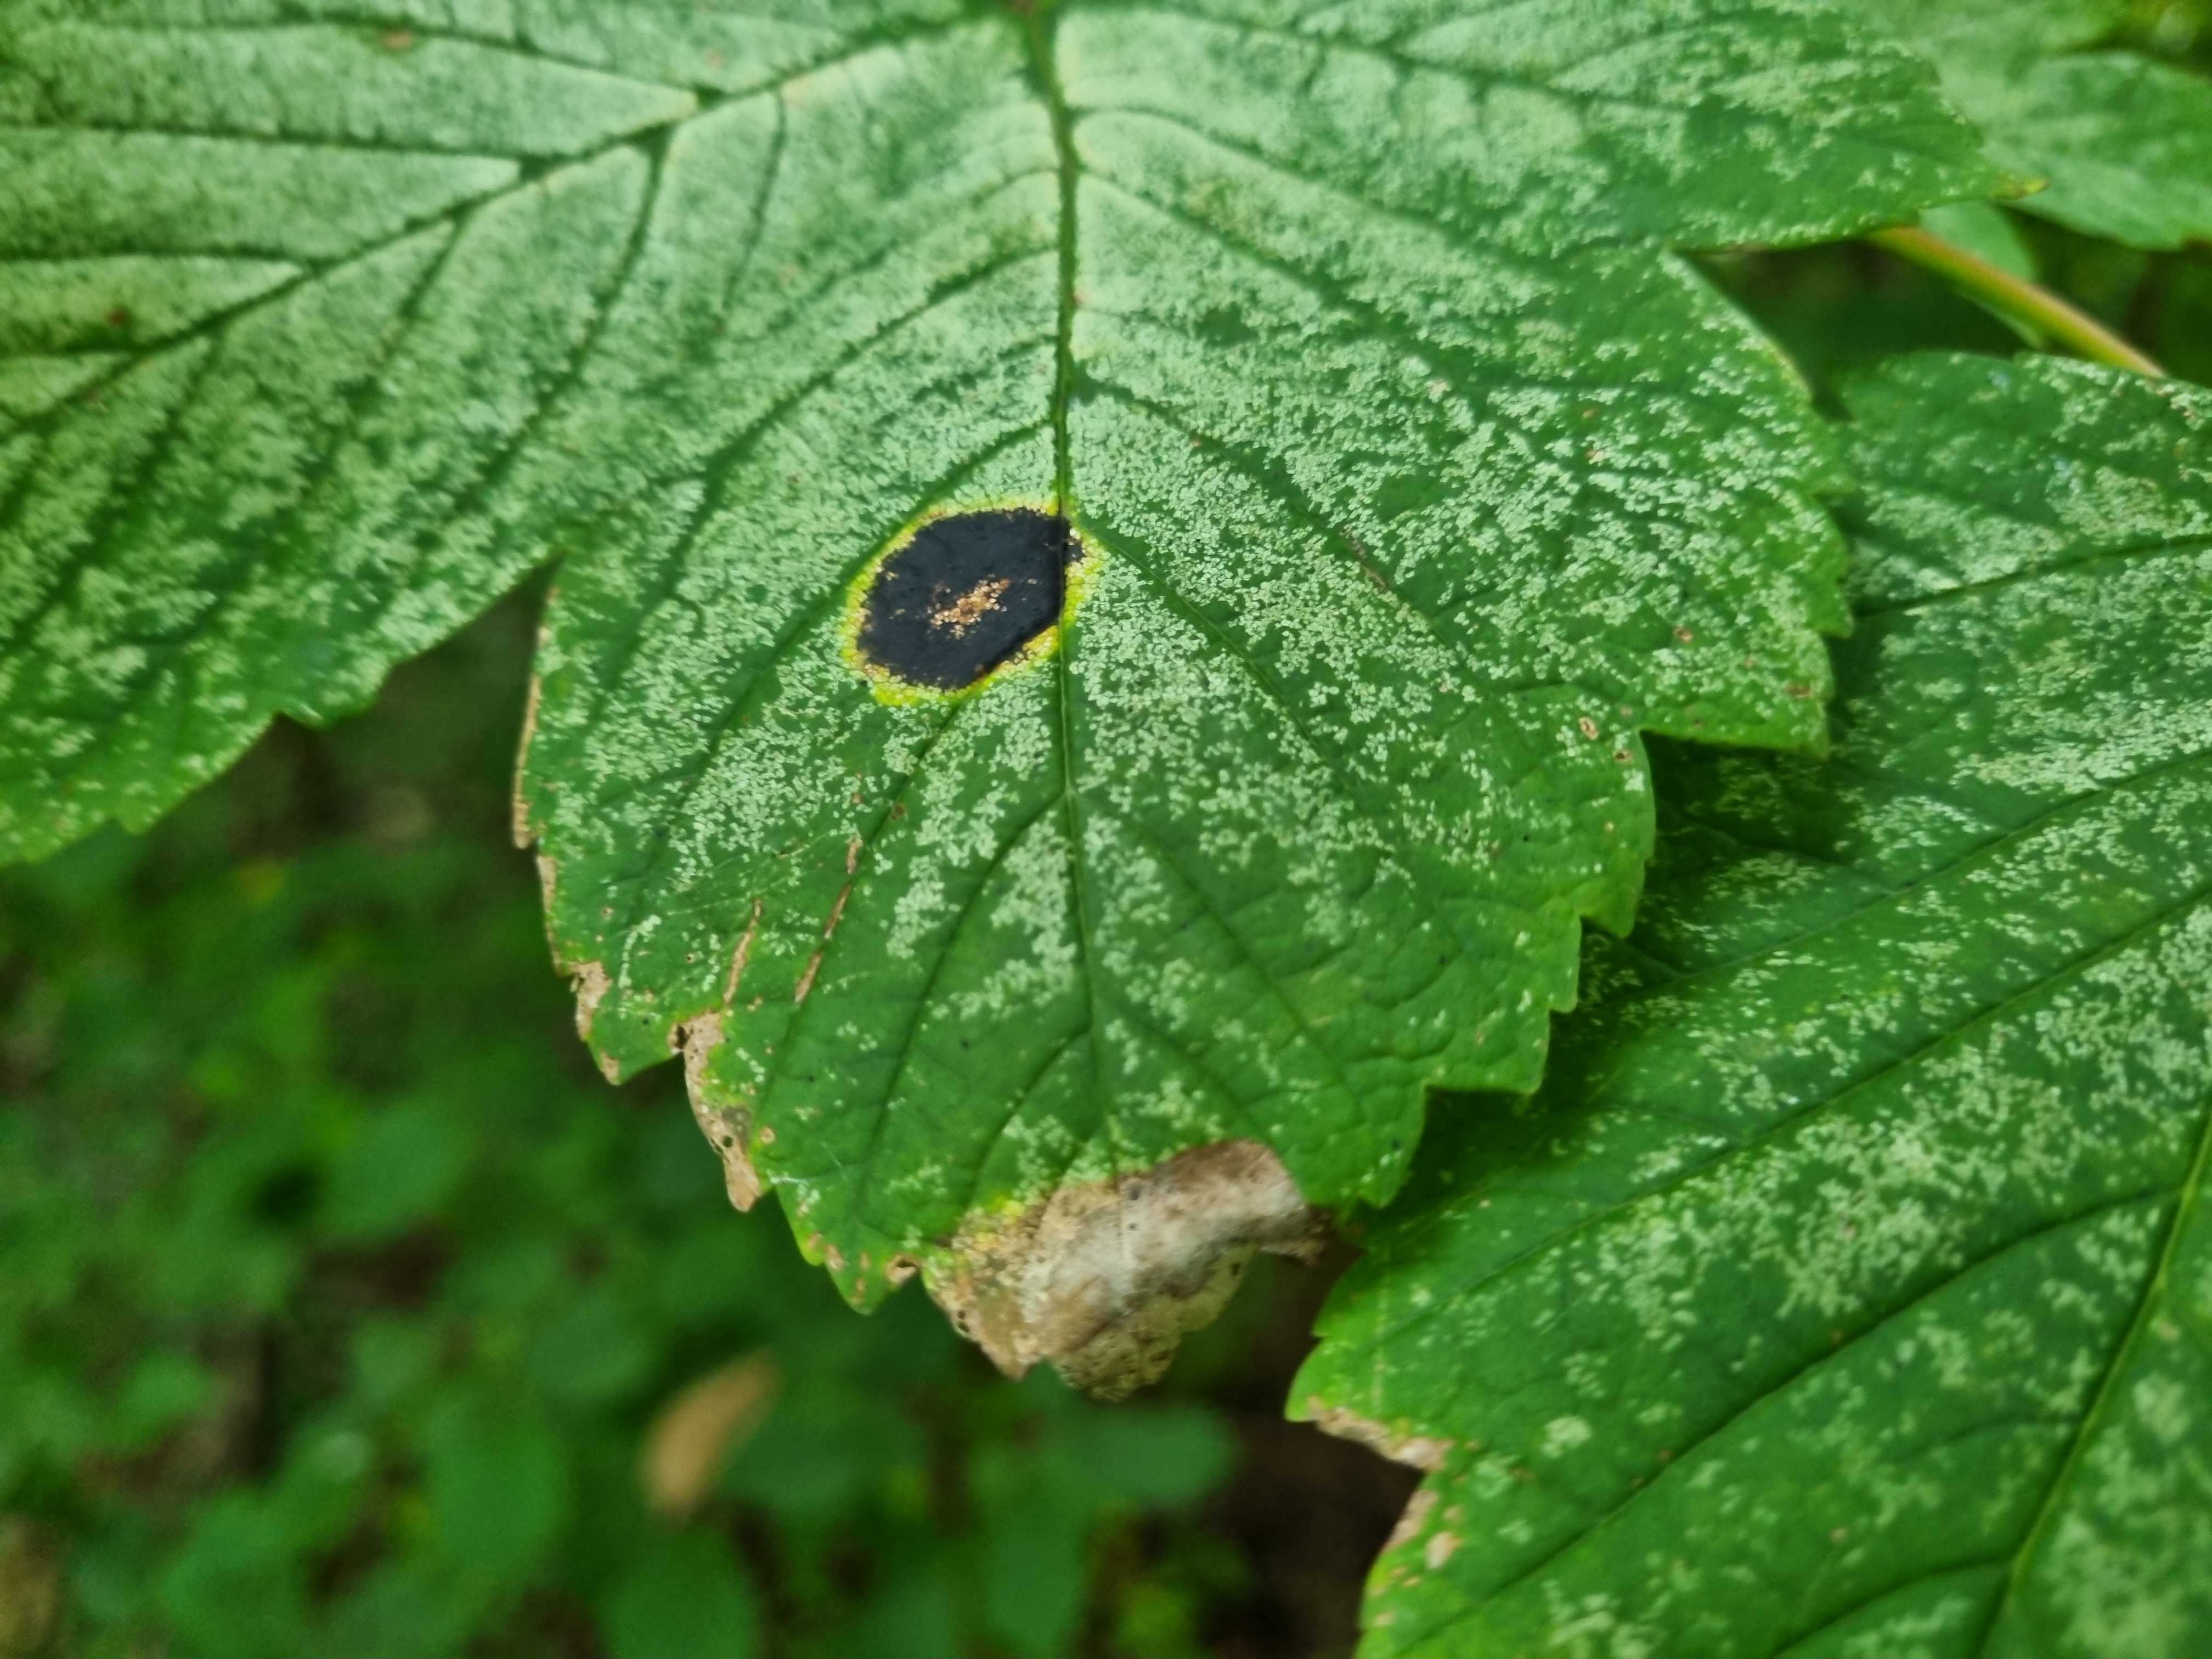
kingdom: Fungi
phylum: Ascomycota
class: Leotiomycetes
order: Rhytismatales
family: Rhytismataceae
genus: Rhytisma
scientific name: Rhytisma acerinum
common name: ahorn-rynkeplet
